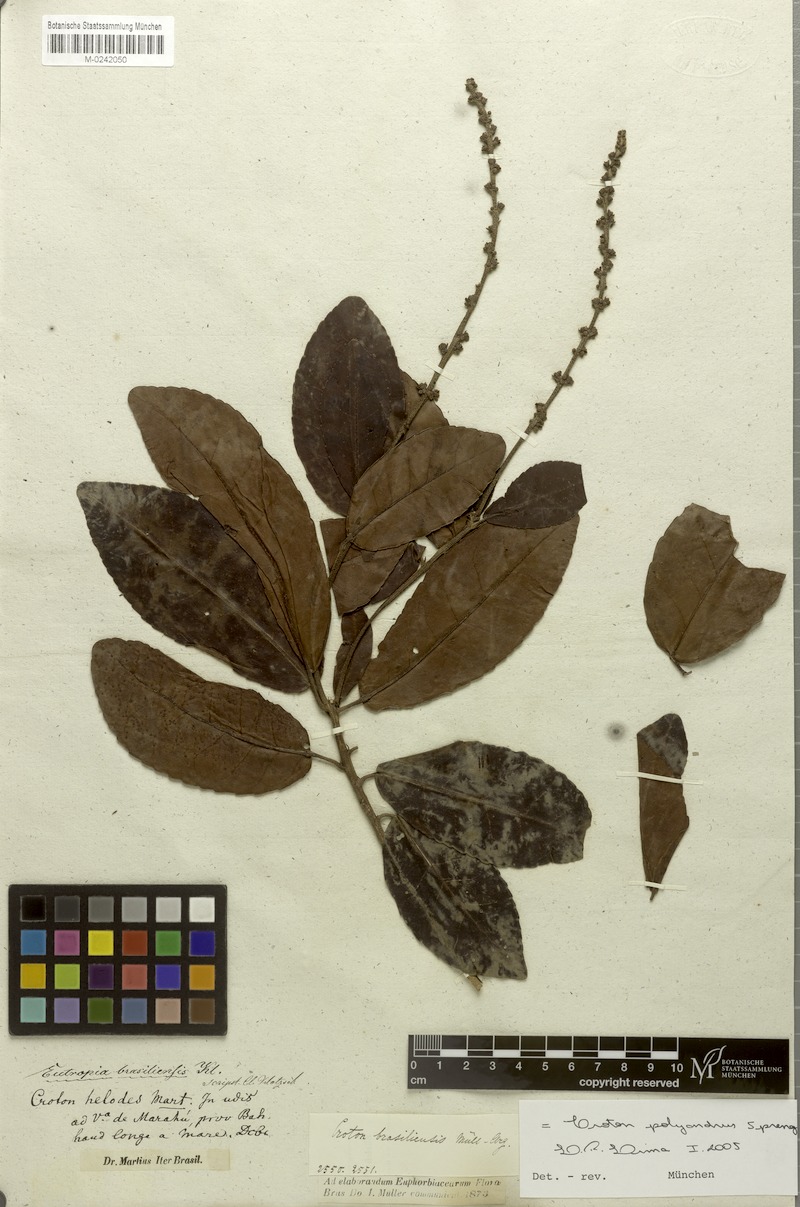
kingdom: Plantae
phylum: Tracheophyta
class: Magnoliopsida
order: Malpighiales
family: Euphorbiaceae
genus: Croton
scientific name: Croton polyandrus
